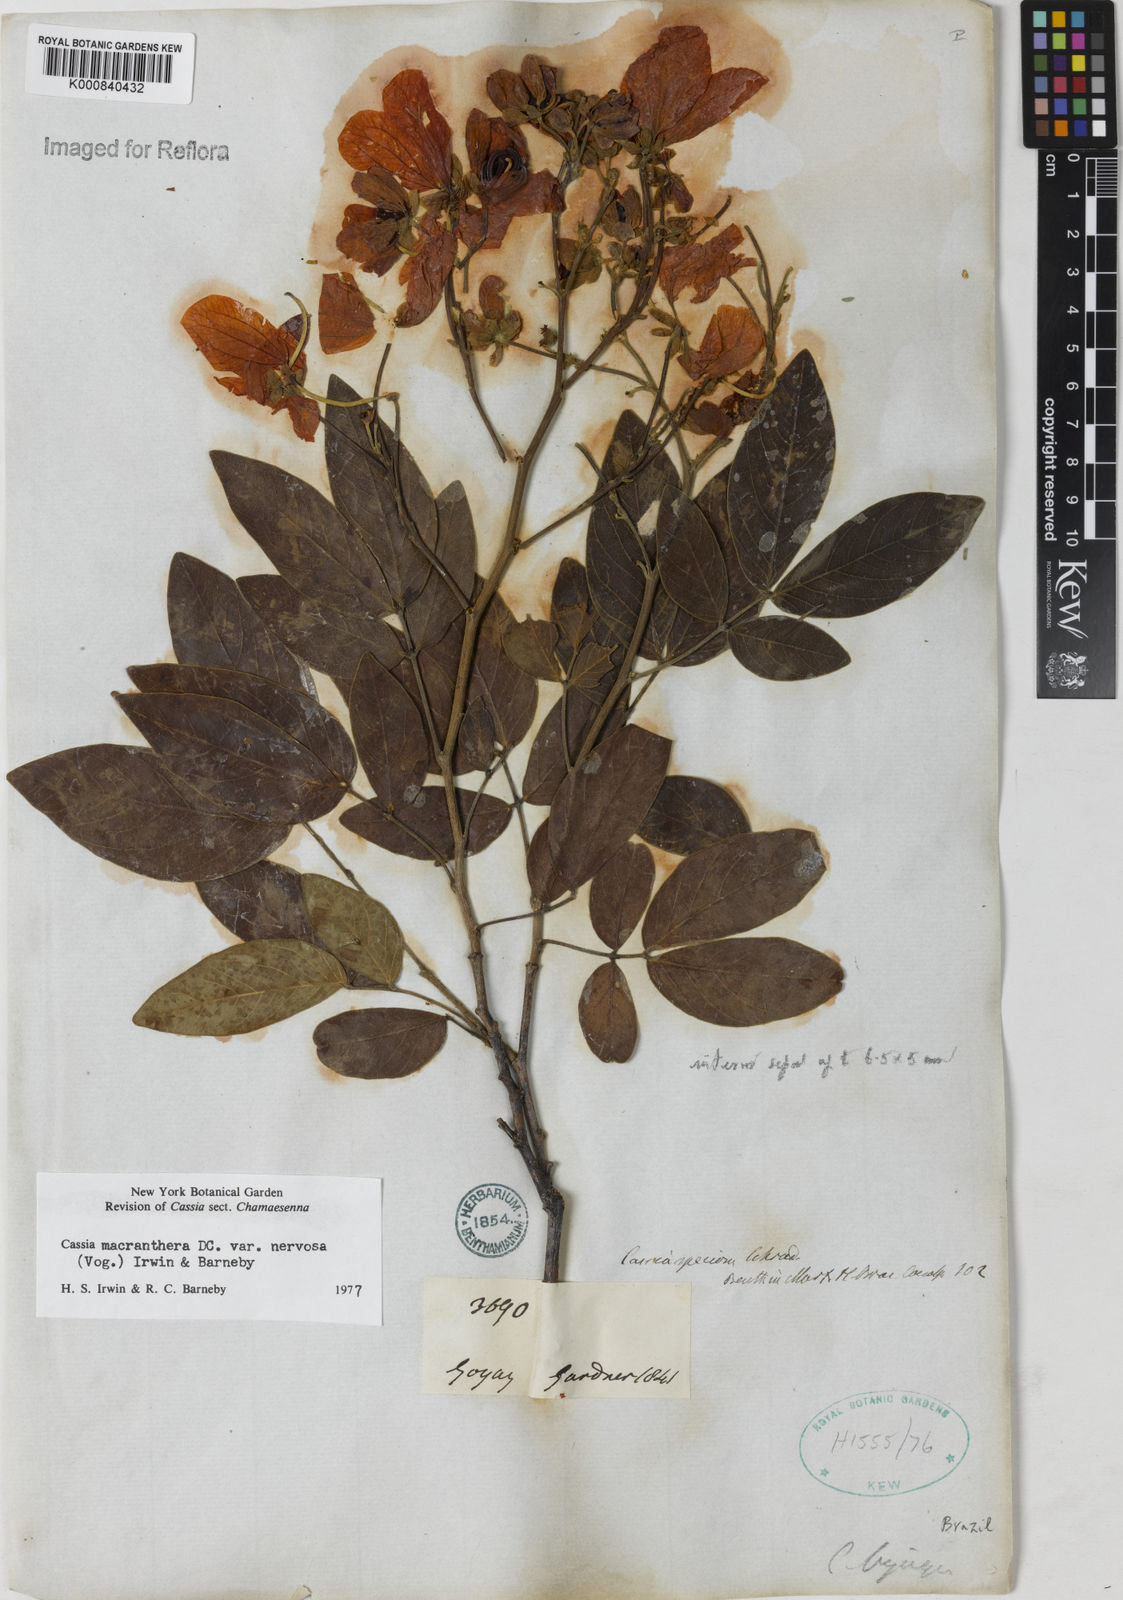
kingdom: Plantae
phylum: Tracheophyta
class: Magnoliopsida
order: Fabales
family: Fabaceae
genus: Senna
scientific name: Senna macranthera
